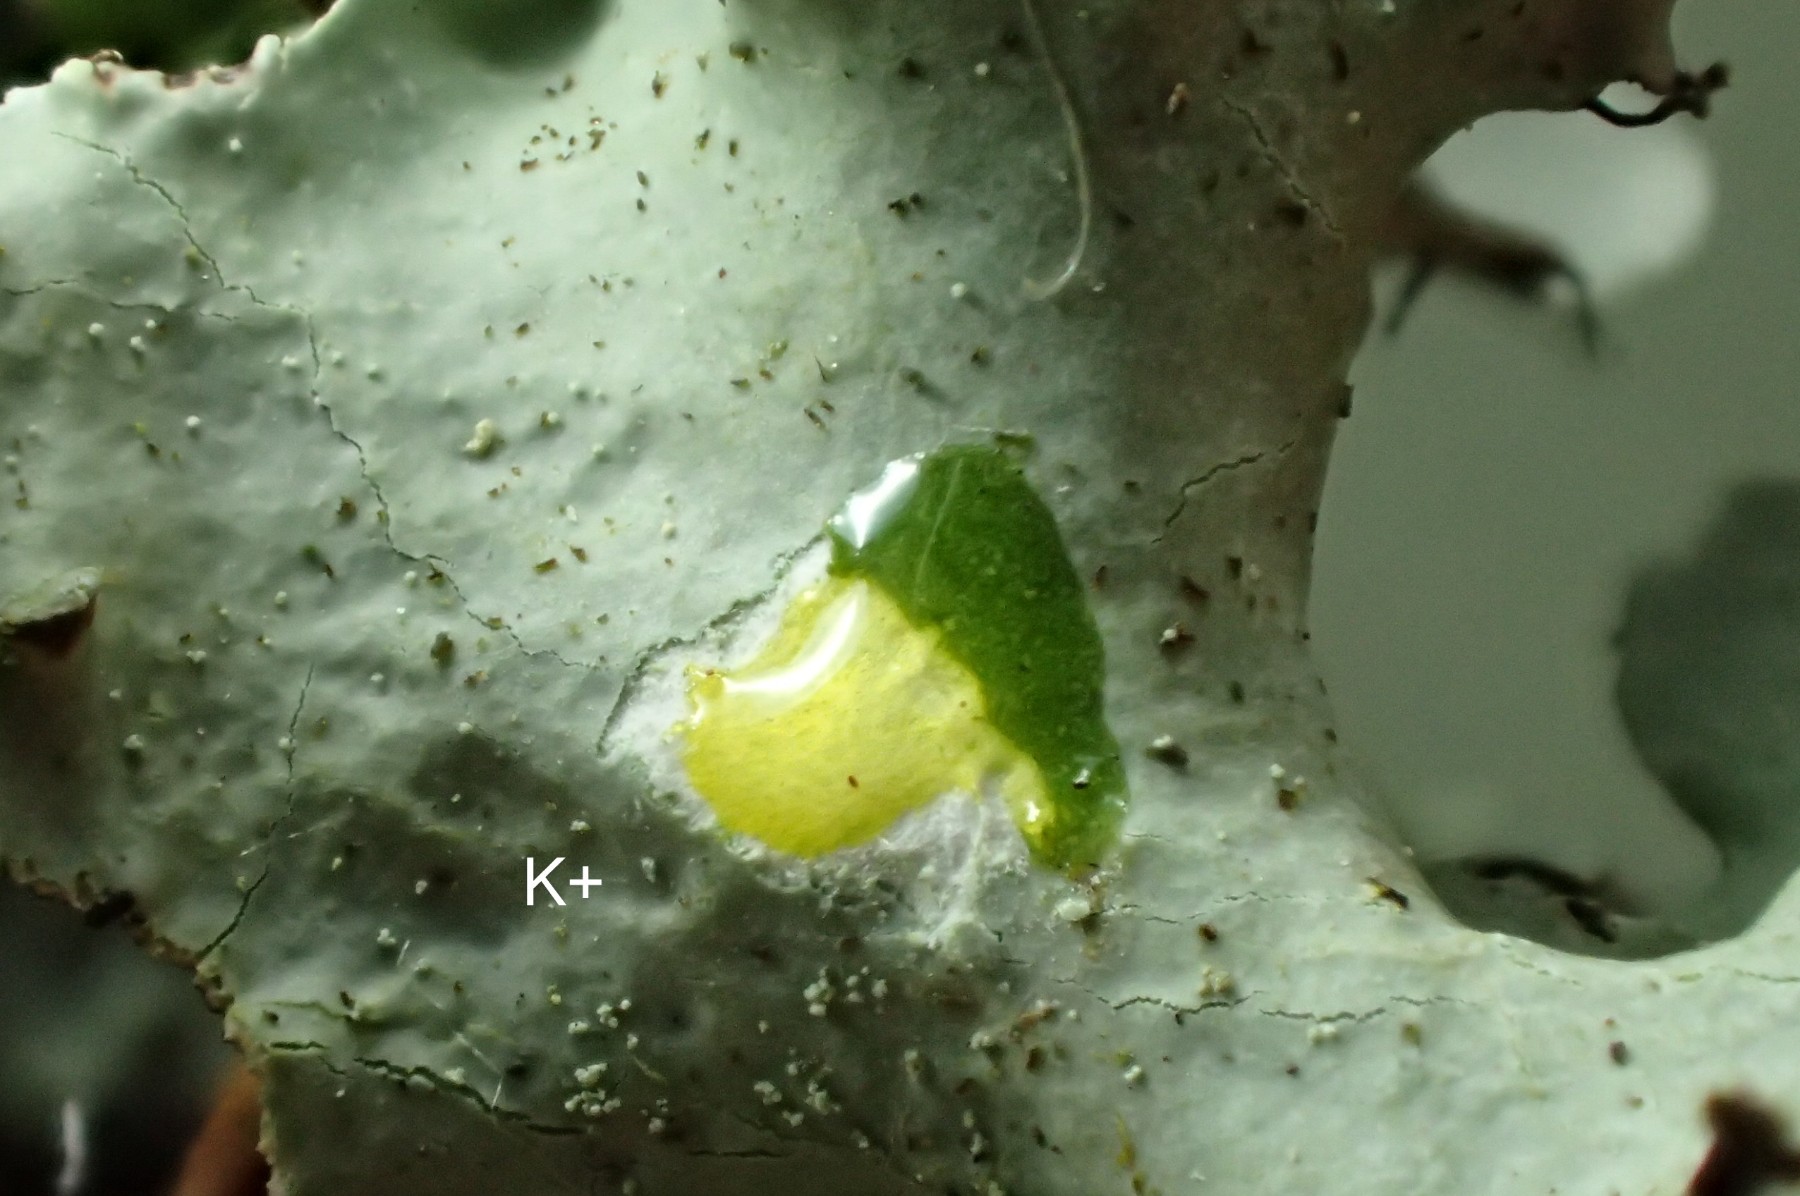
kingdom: Fungi
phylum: Ascomycota
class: Lecanoromycetes
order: Lecanorales
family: Parmeliaceae
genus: Parmotrema
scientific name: Parmotrema perlatum
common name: trådet skållav
